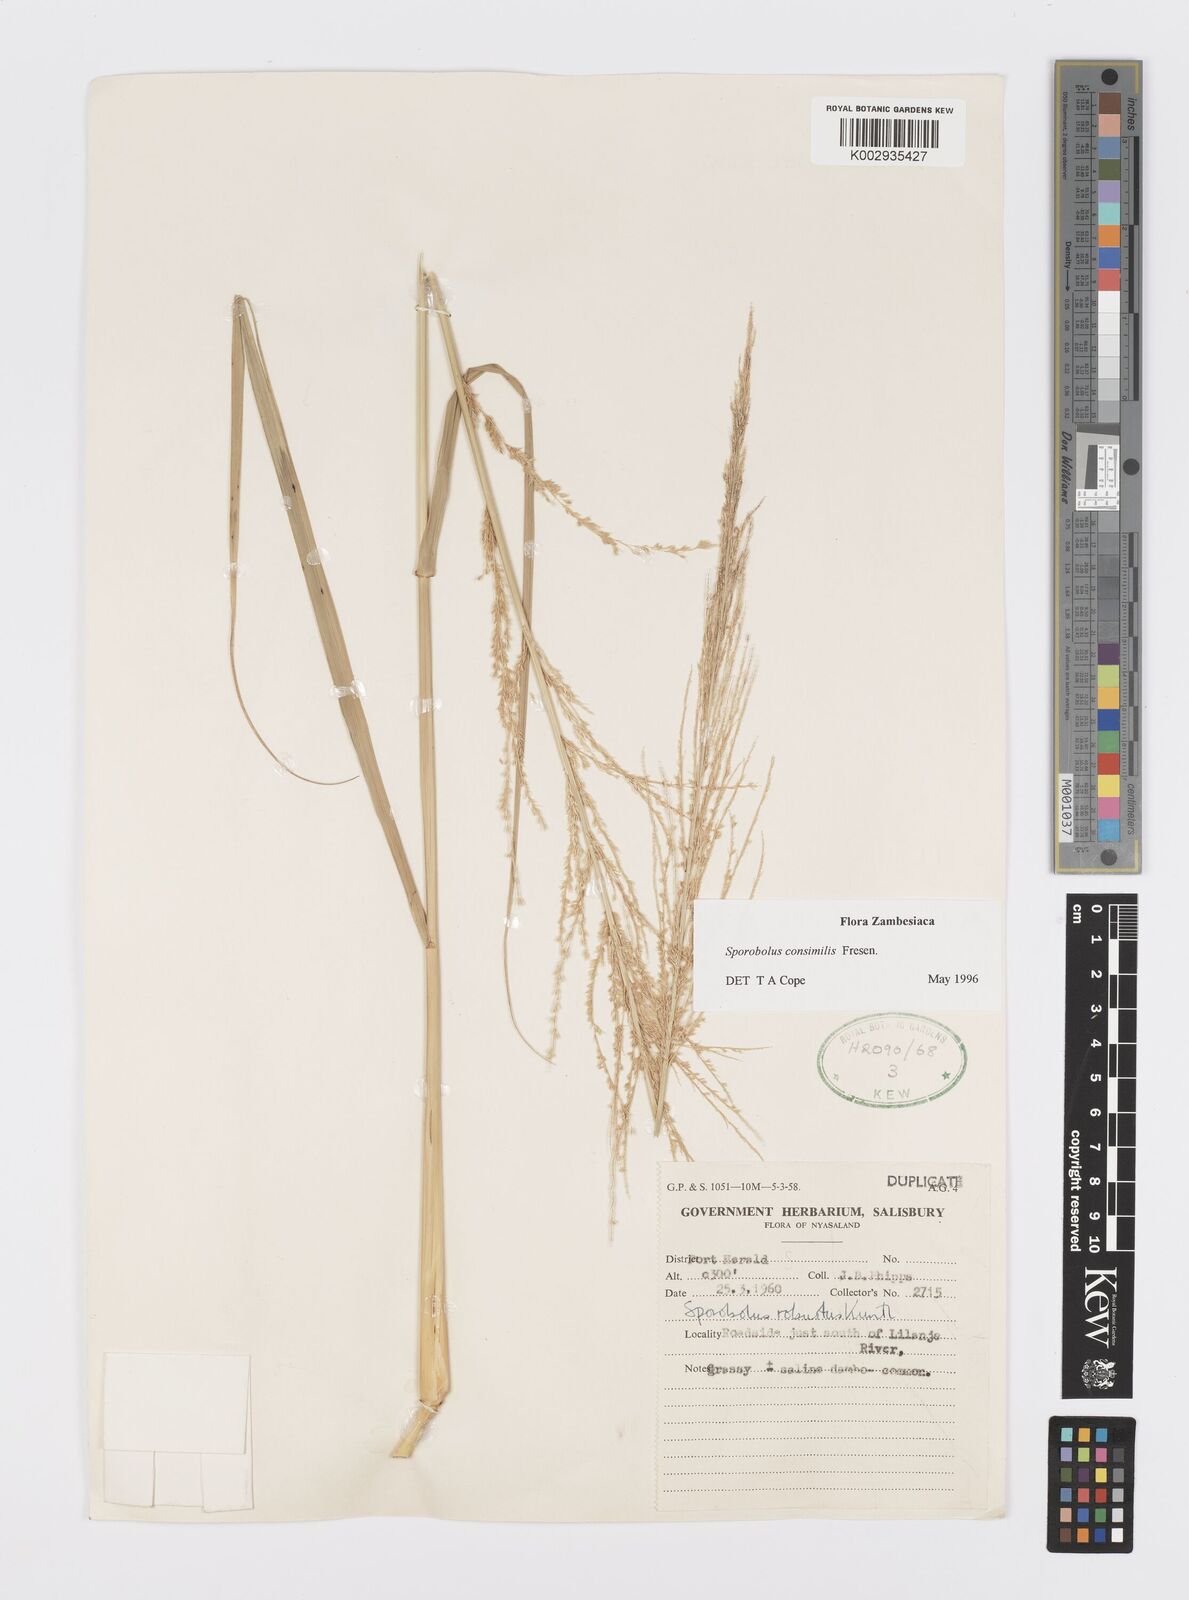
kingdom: Plantae
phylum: Tracheophyta
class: Liliopsida
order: Poales
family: Poaceae
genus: Sporobolus
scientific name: Sporobolus consimilis
